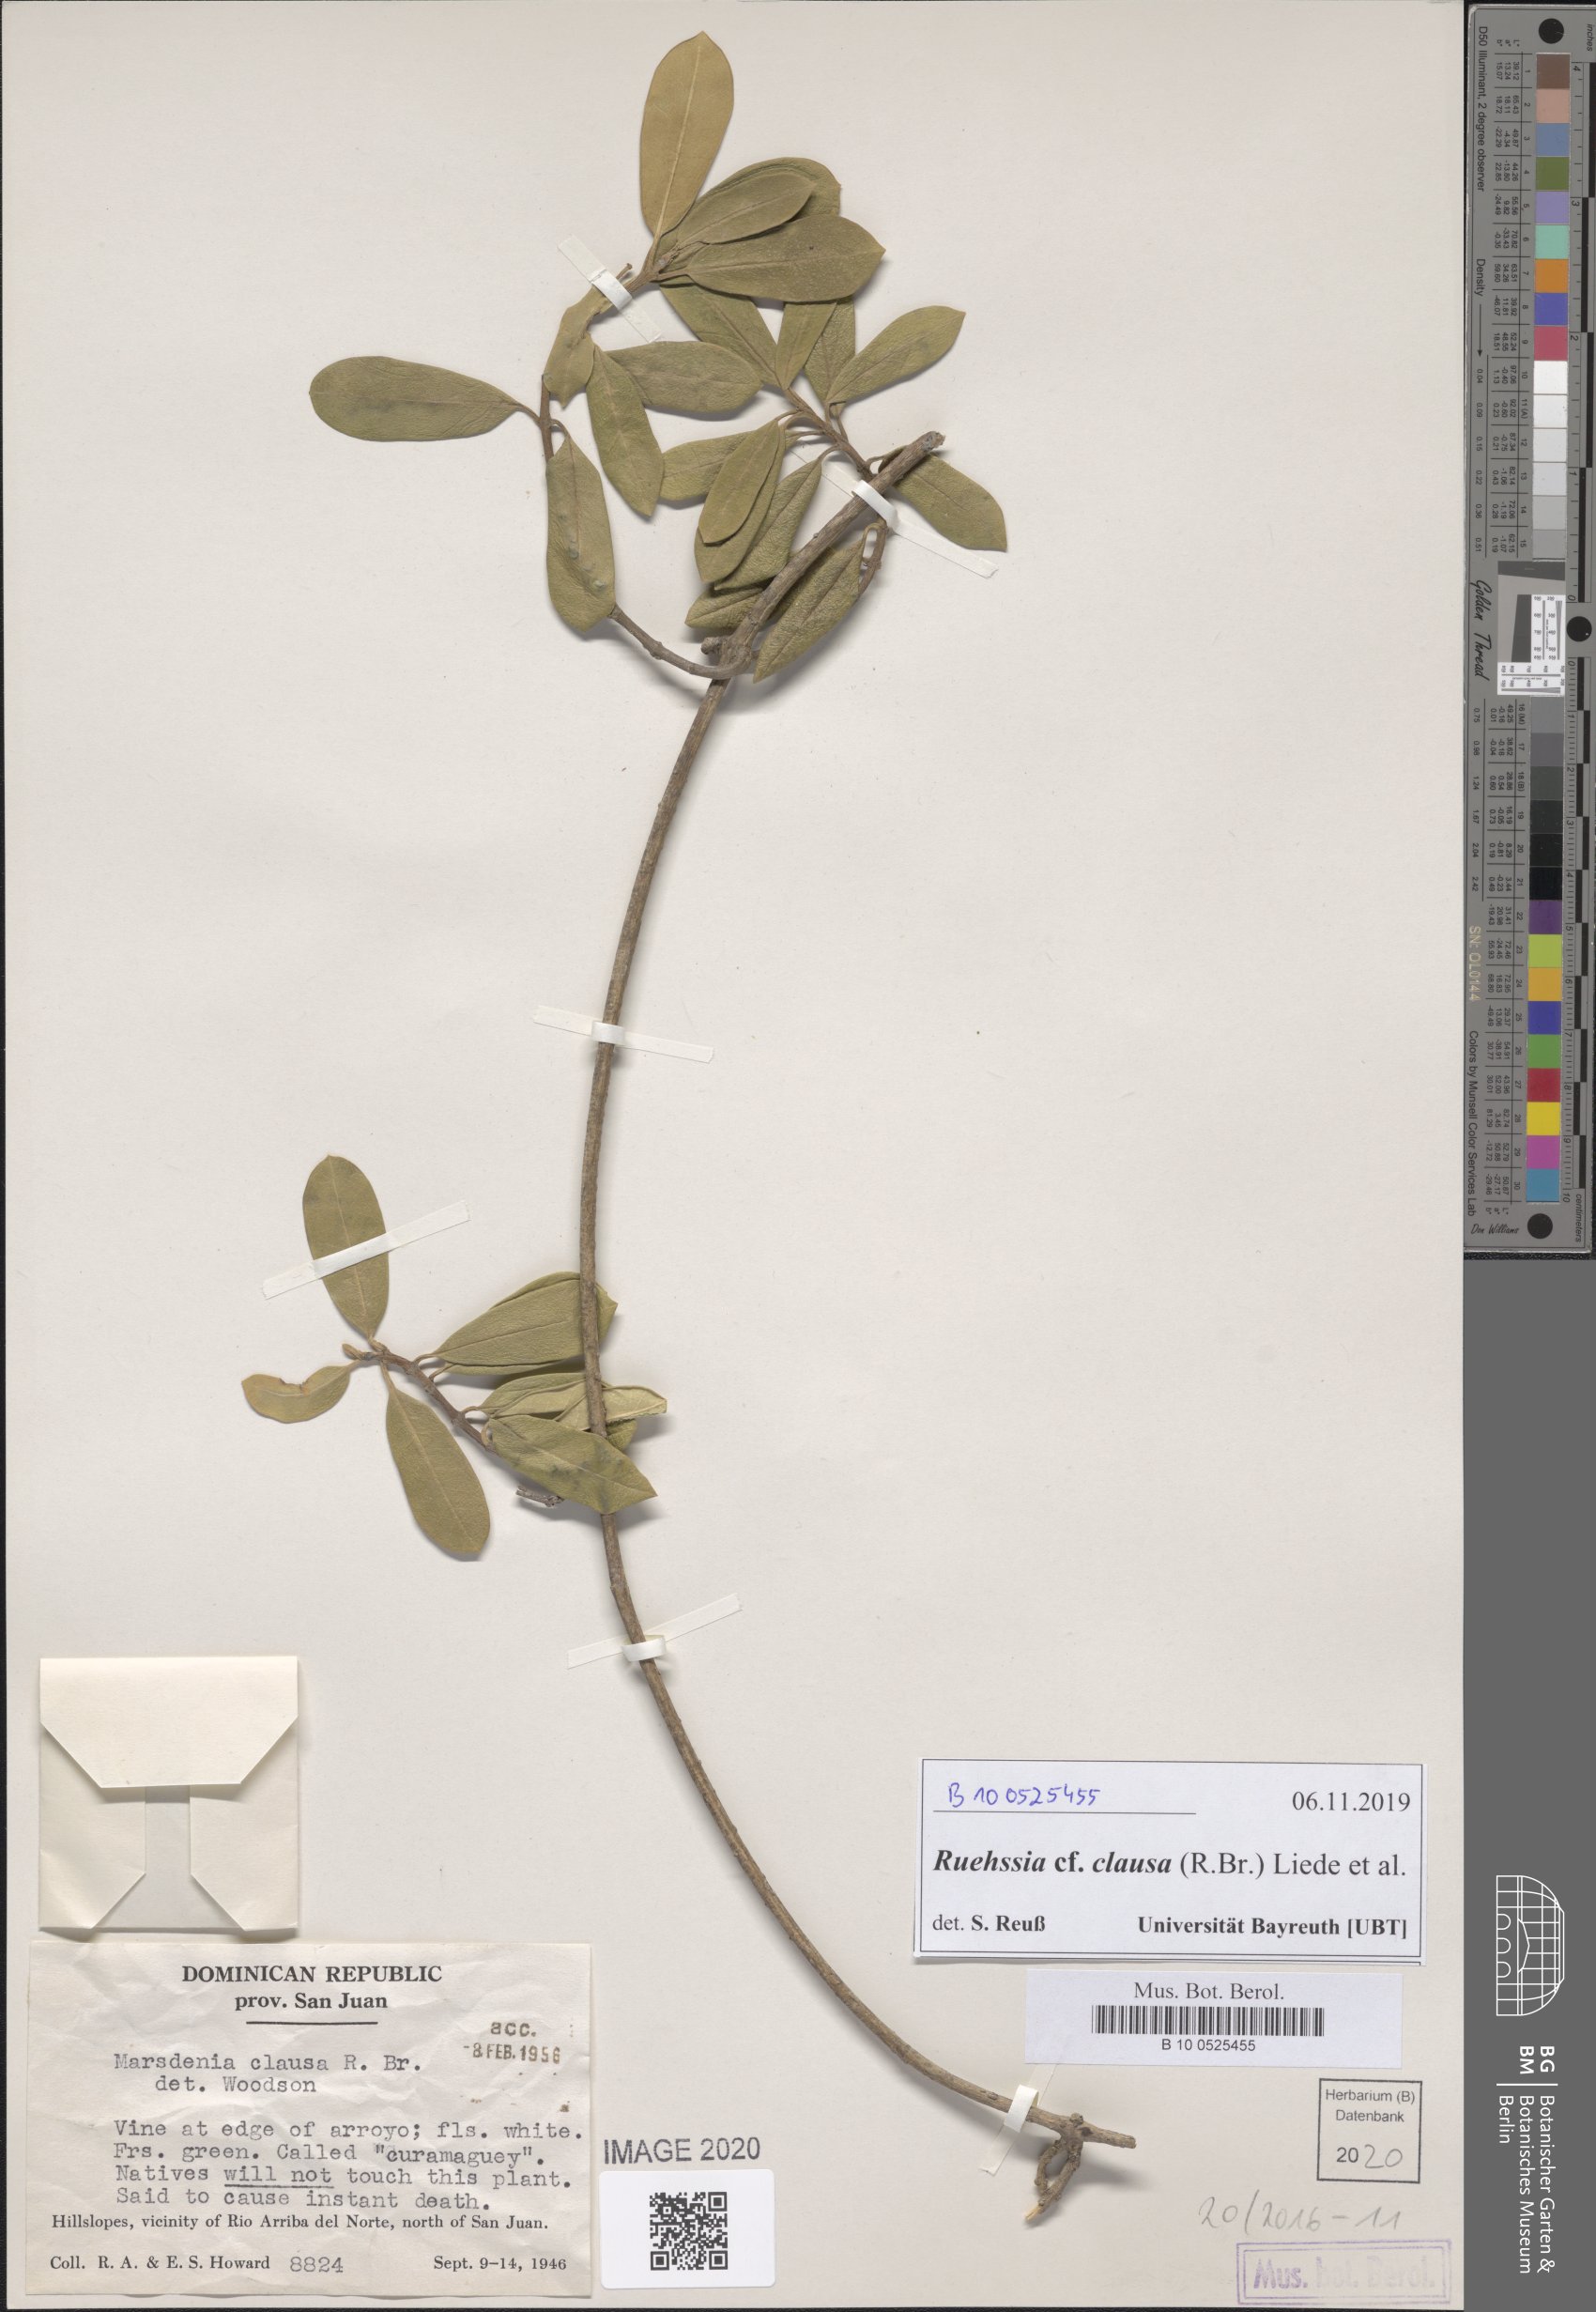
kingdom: Plantae
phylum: Tracheophyta
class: Magnoliopsida
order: Gentianales
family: Apocynaceae
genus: Ruehssia
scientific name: Ruehssia clausa
